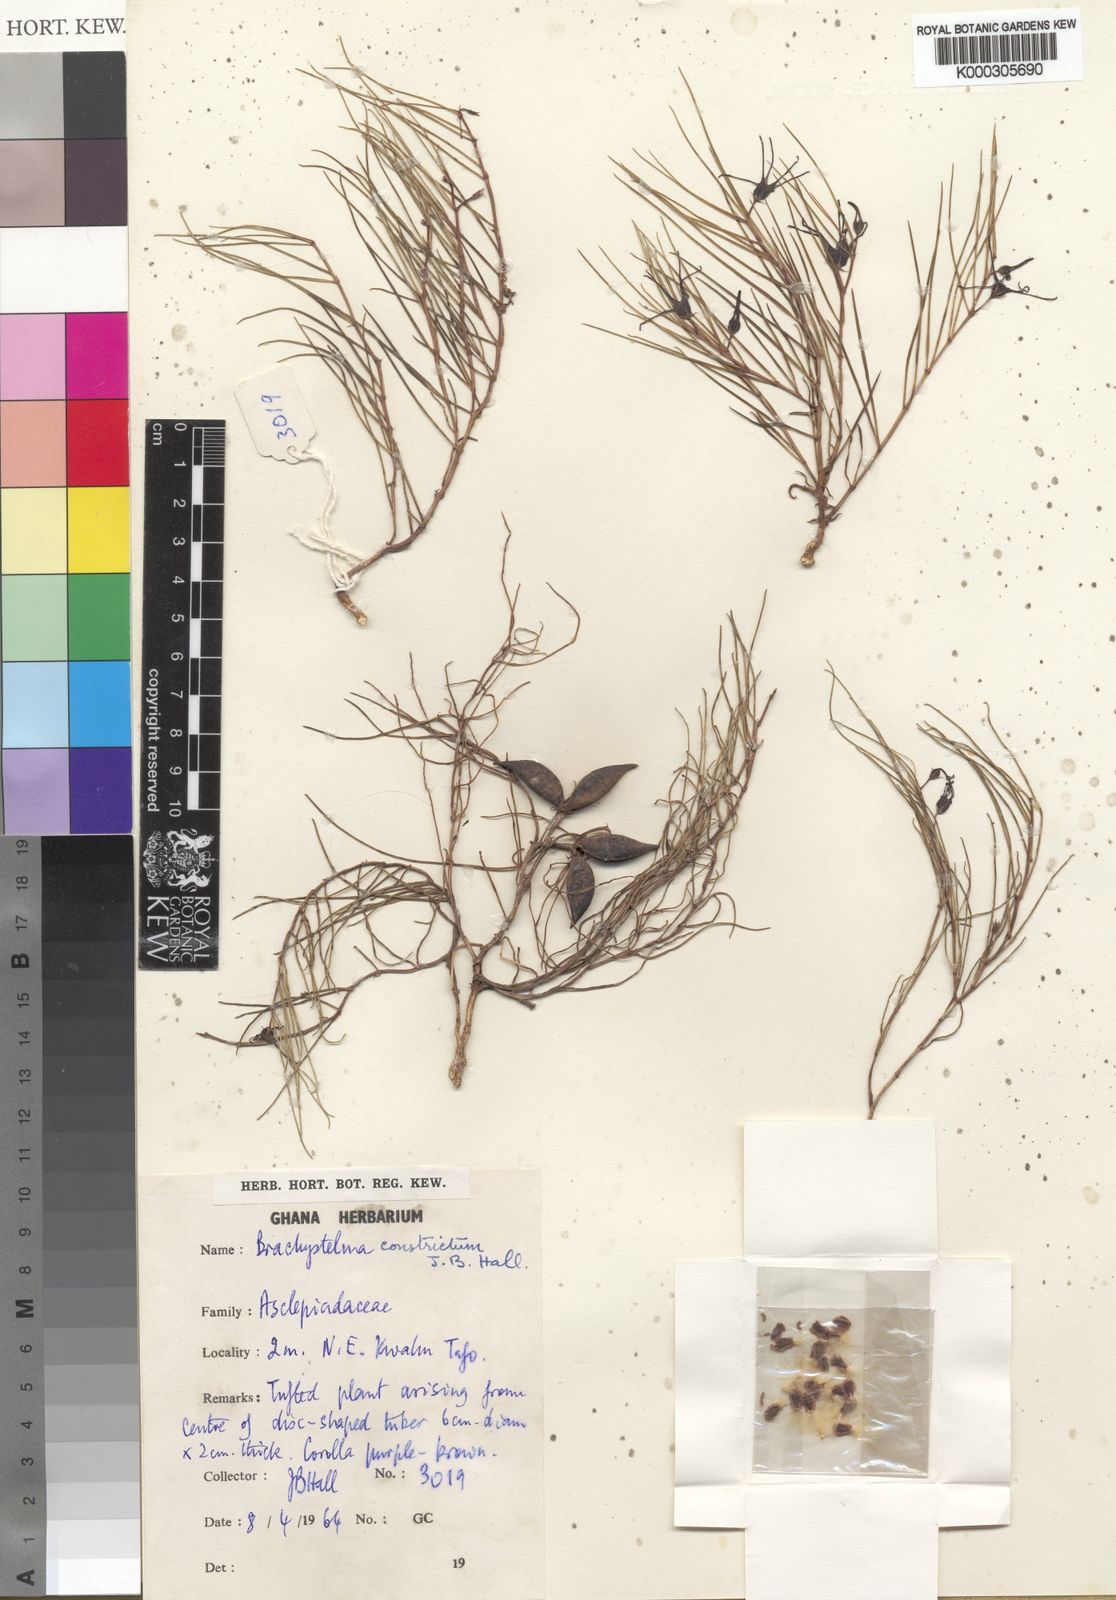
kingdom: Plantae
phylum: Tracheophyta
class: Magnoliopsida
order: Gentianales
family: Apocynaceae
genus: Ceropegia
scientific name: Ceropegia johnstonii
